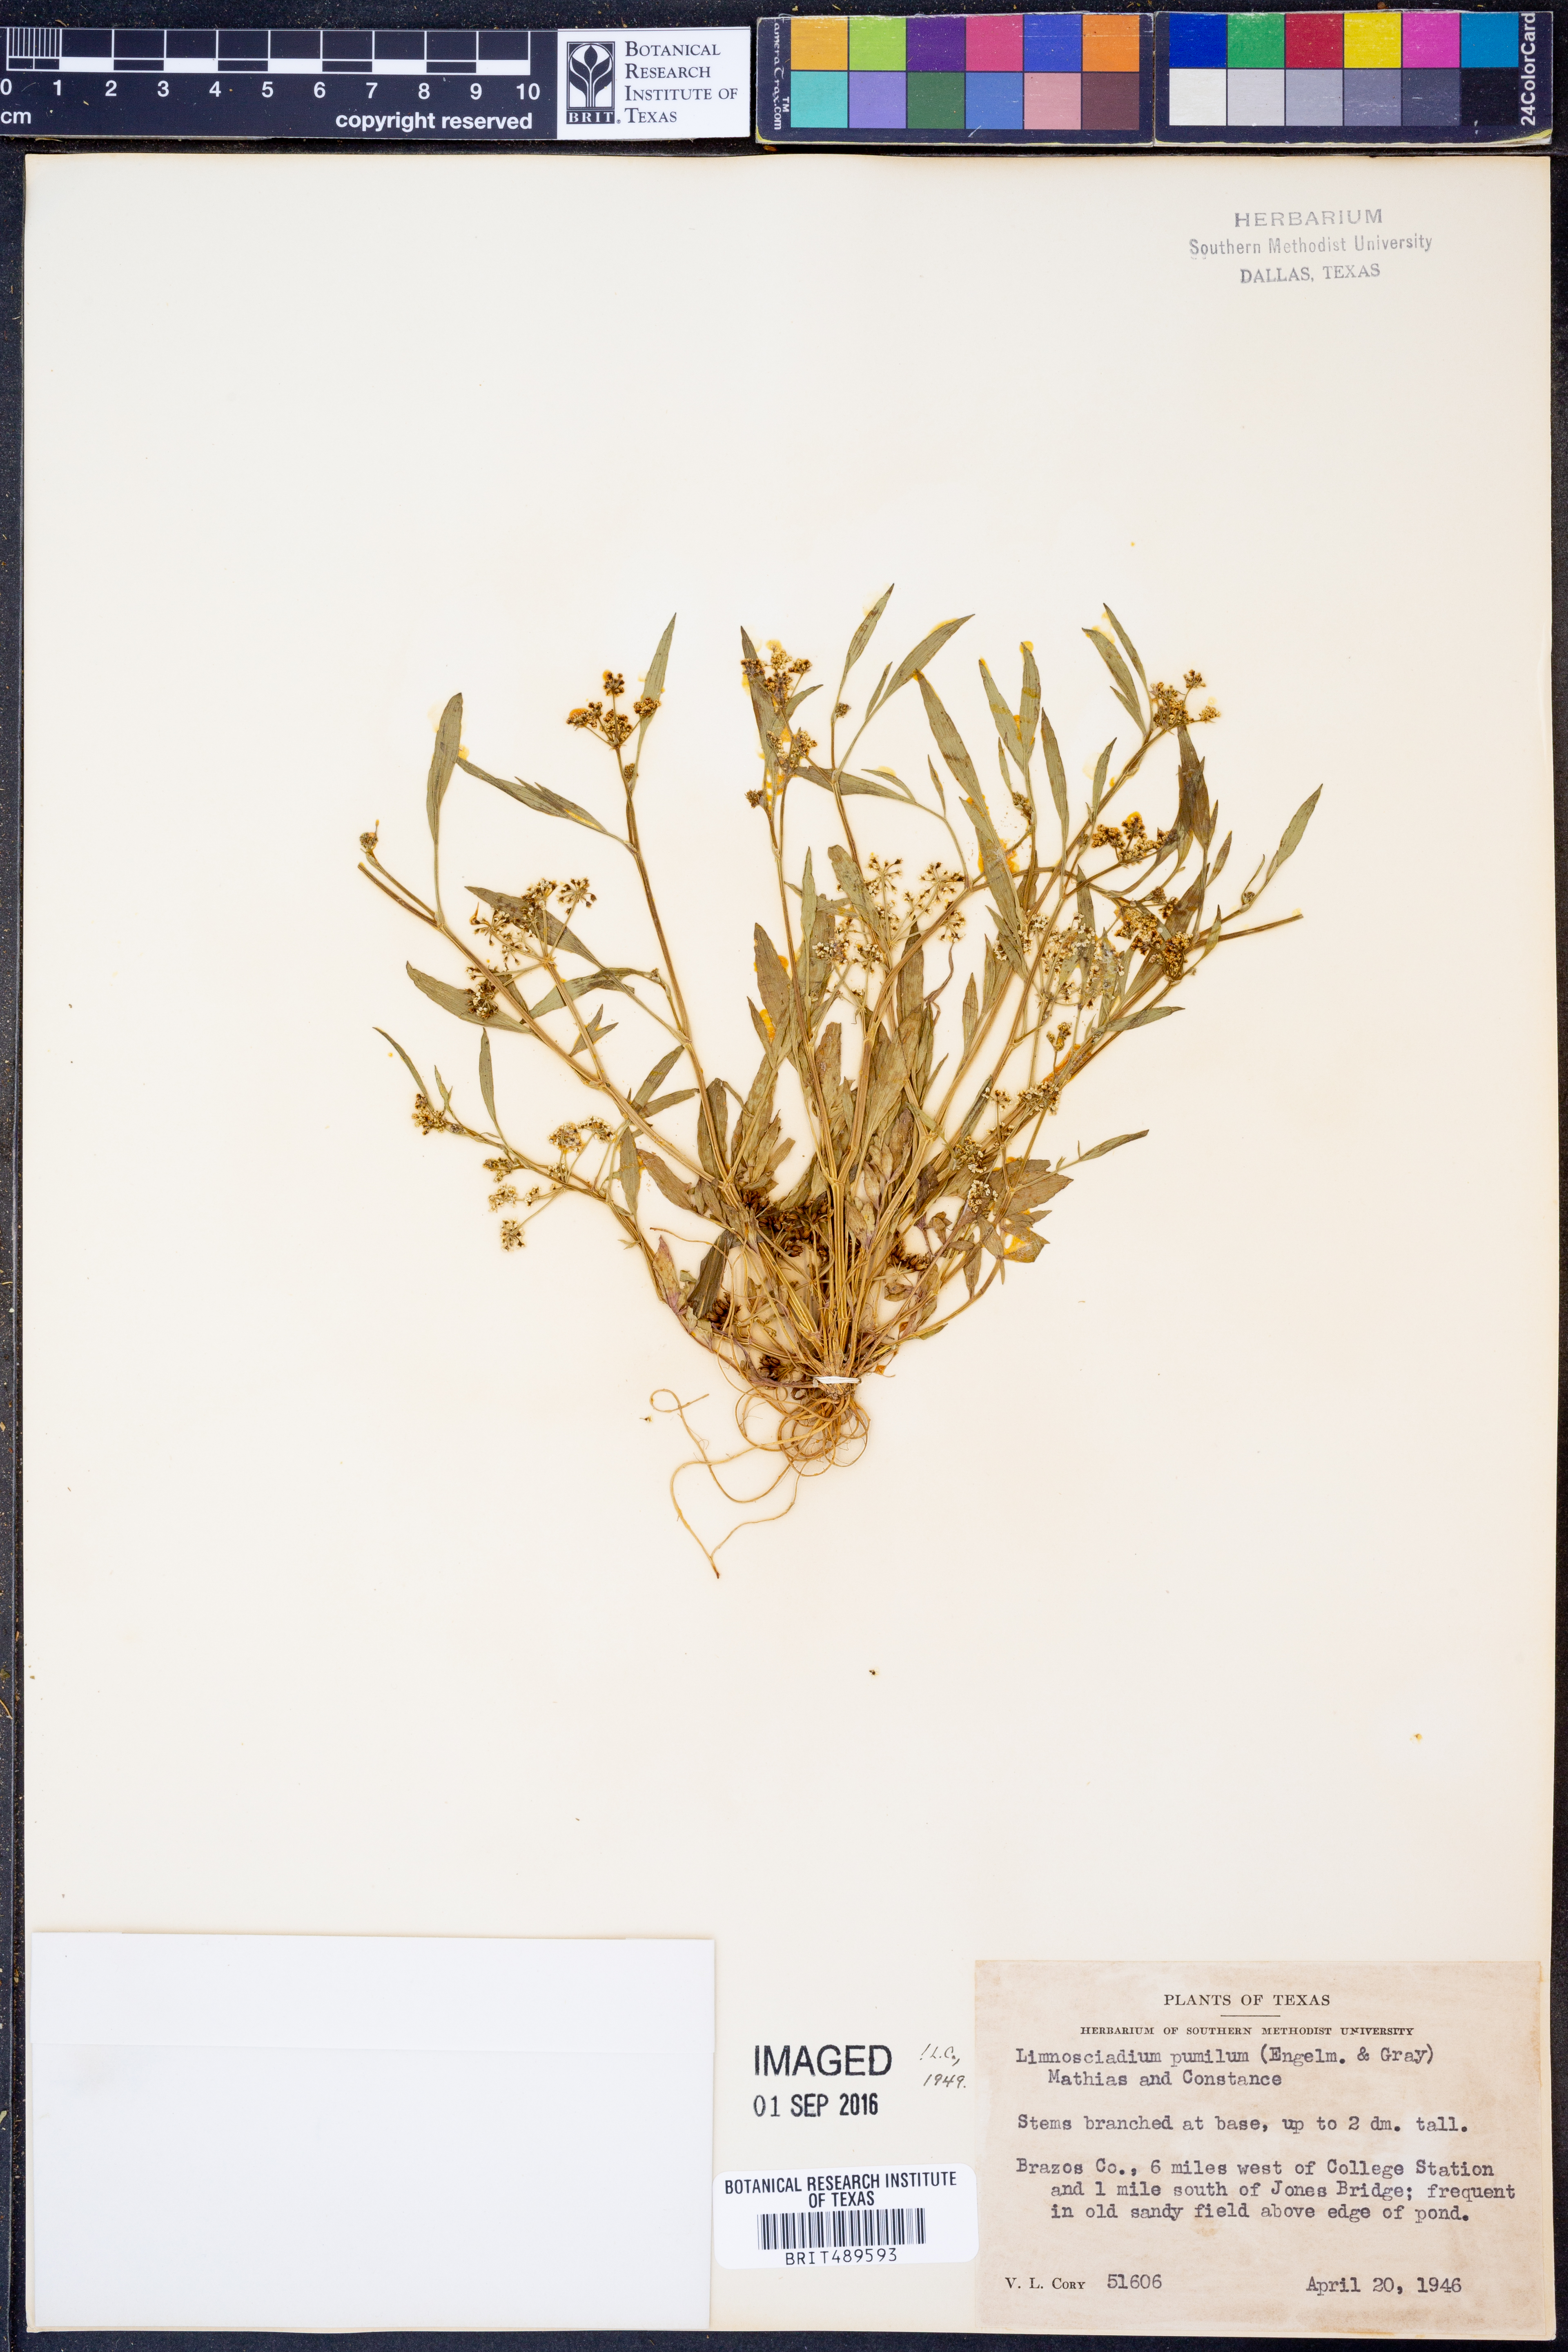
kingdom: Plantae
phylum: Tracheophyta
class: Magnoliopsida
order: Apiales
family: Apiaceae
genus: Limnosciadium
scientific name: Limnosciadium pinnatum
